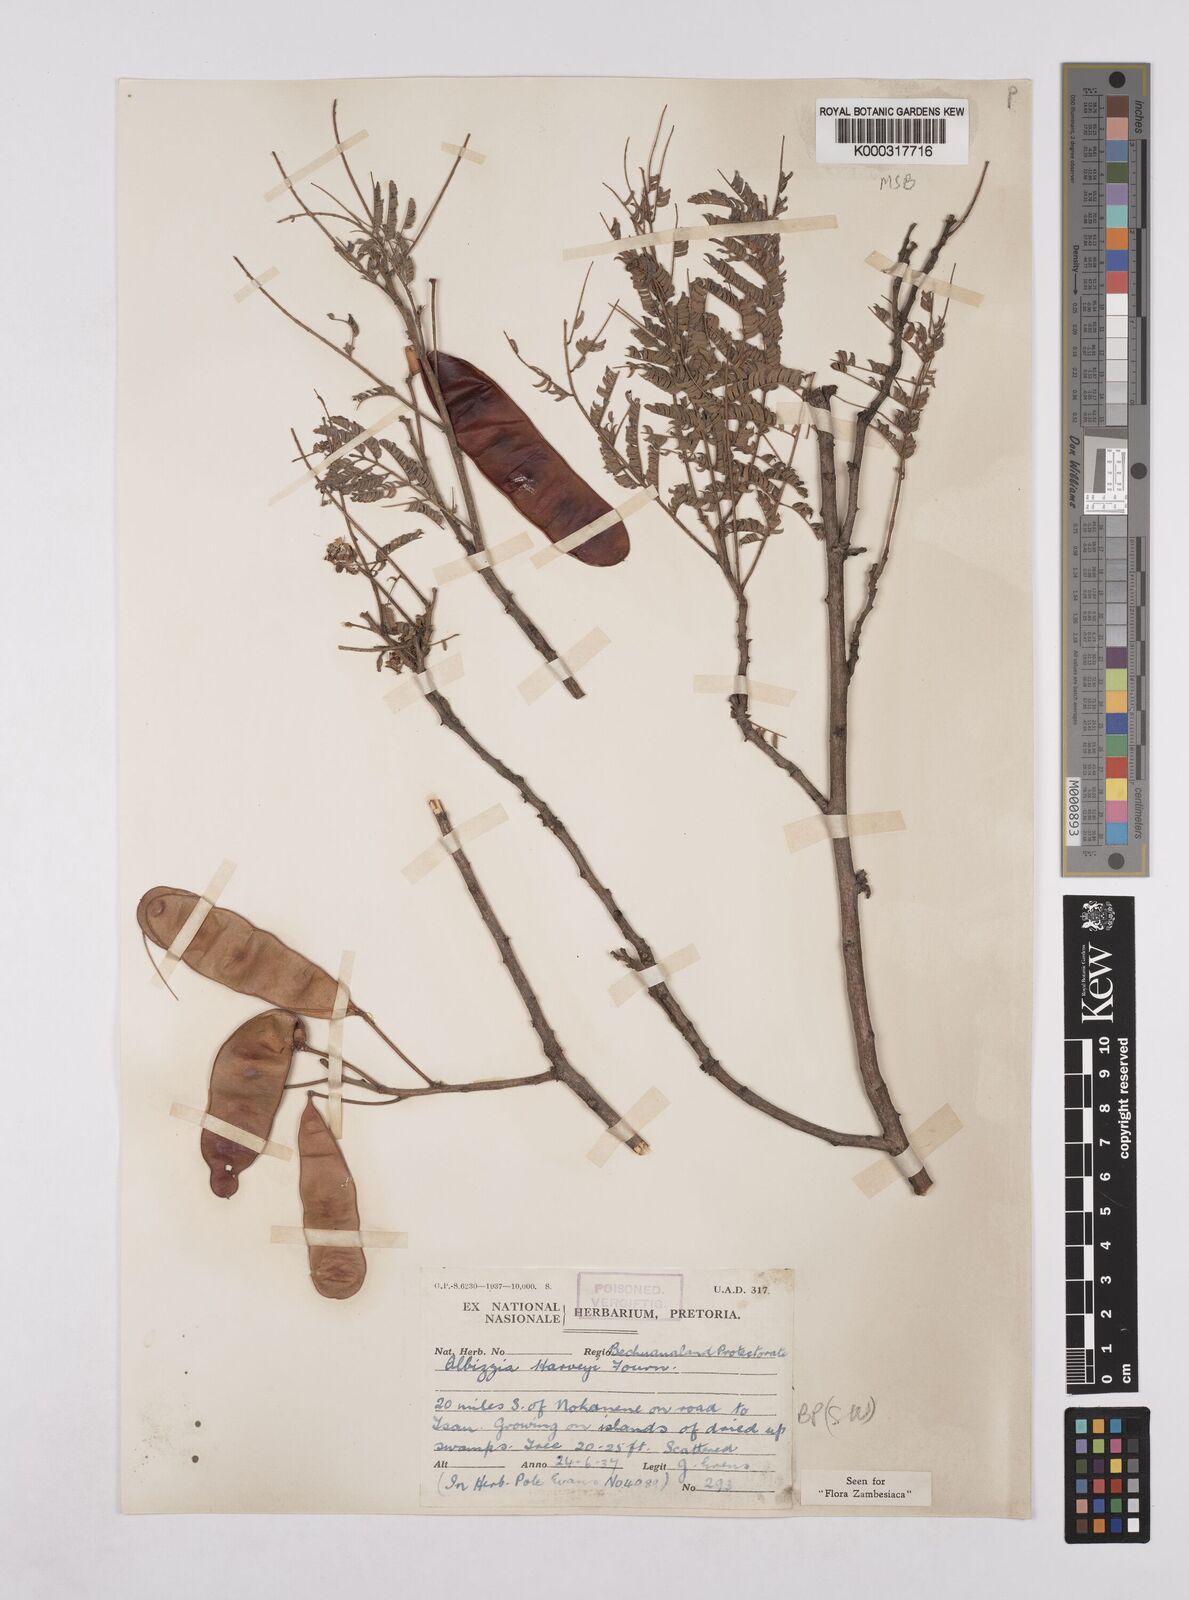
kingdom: Plantae
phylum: Tracheophyta
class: Magnoliopsida
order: Fabales
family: Fabaceae
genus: Albizia
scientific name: Albizia harveyi
